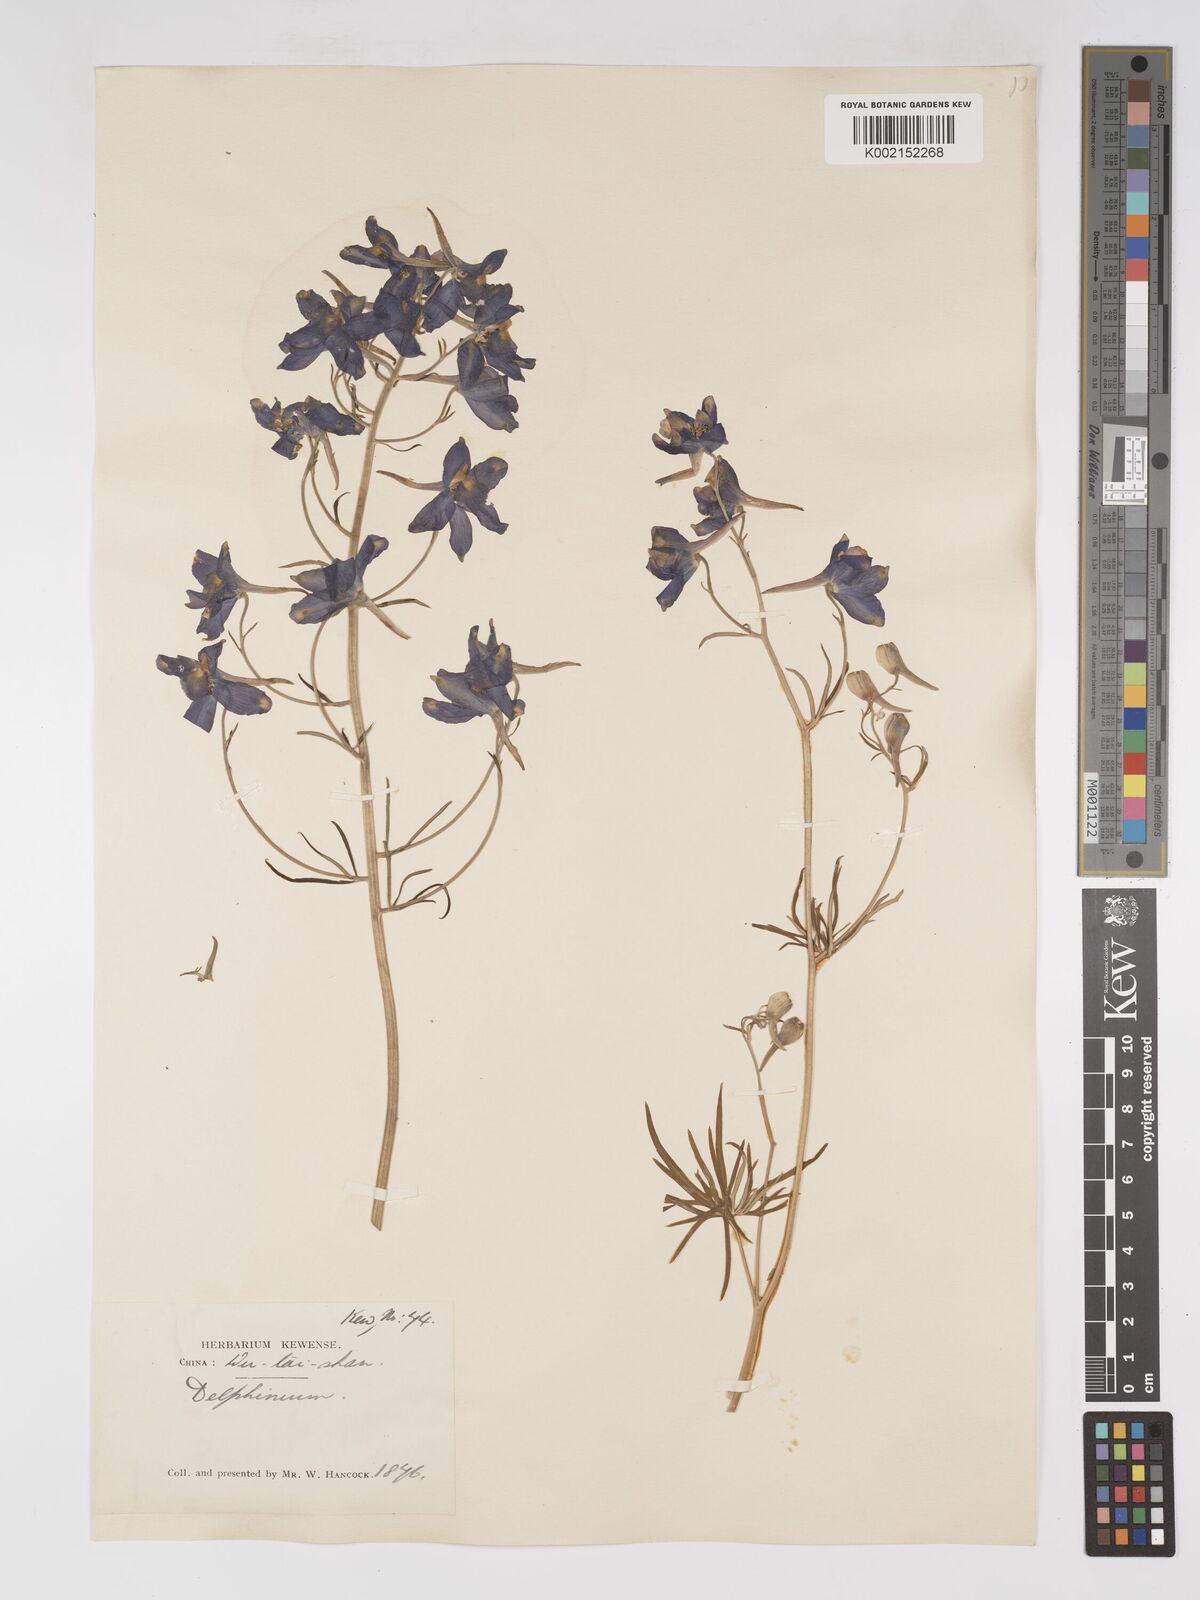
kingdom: Plantae
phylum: Tracheophyta
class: Magnoliopsida
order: Ranunculales
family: Ranunculaceae
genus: Delphinium
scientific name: Delphinium grandiflorum
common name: Siberian larkspur
